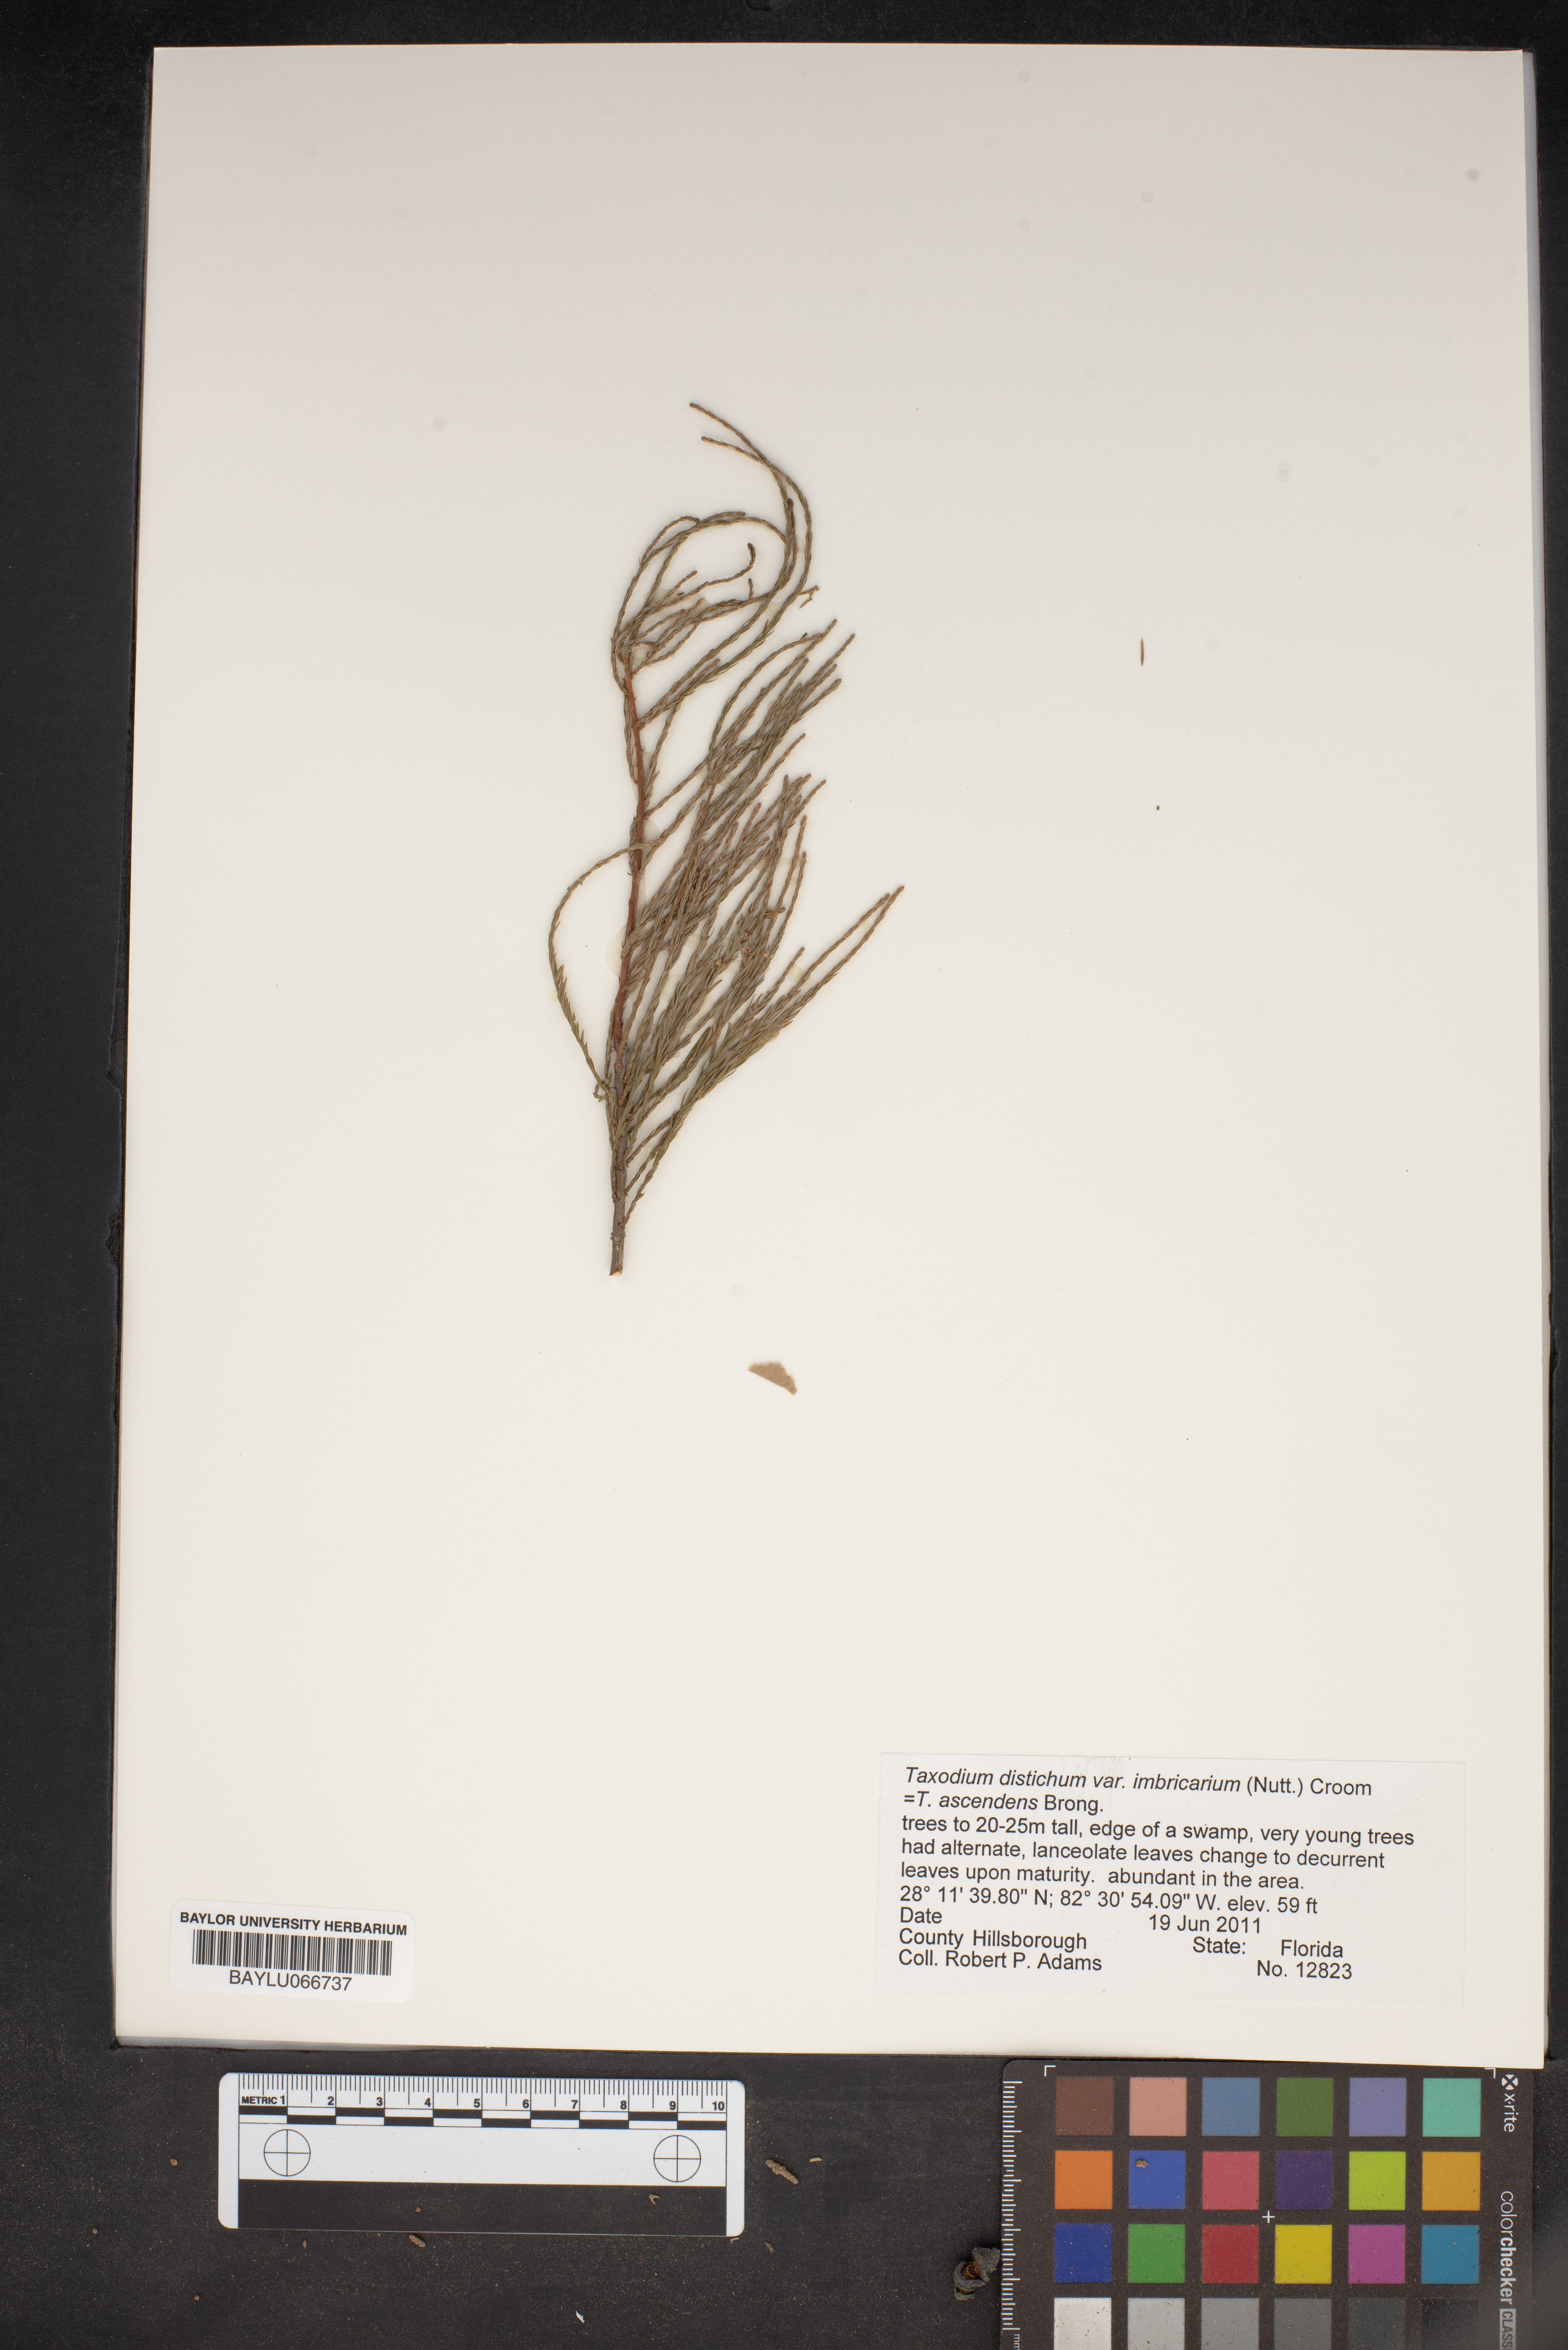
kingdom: Plantae
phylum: Tracheophyta
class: Pinopsida
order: Pinales
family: Cupressaceae
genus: Taxodium
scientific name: Taxodium distichum
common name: Bald cypress
